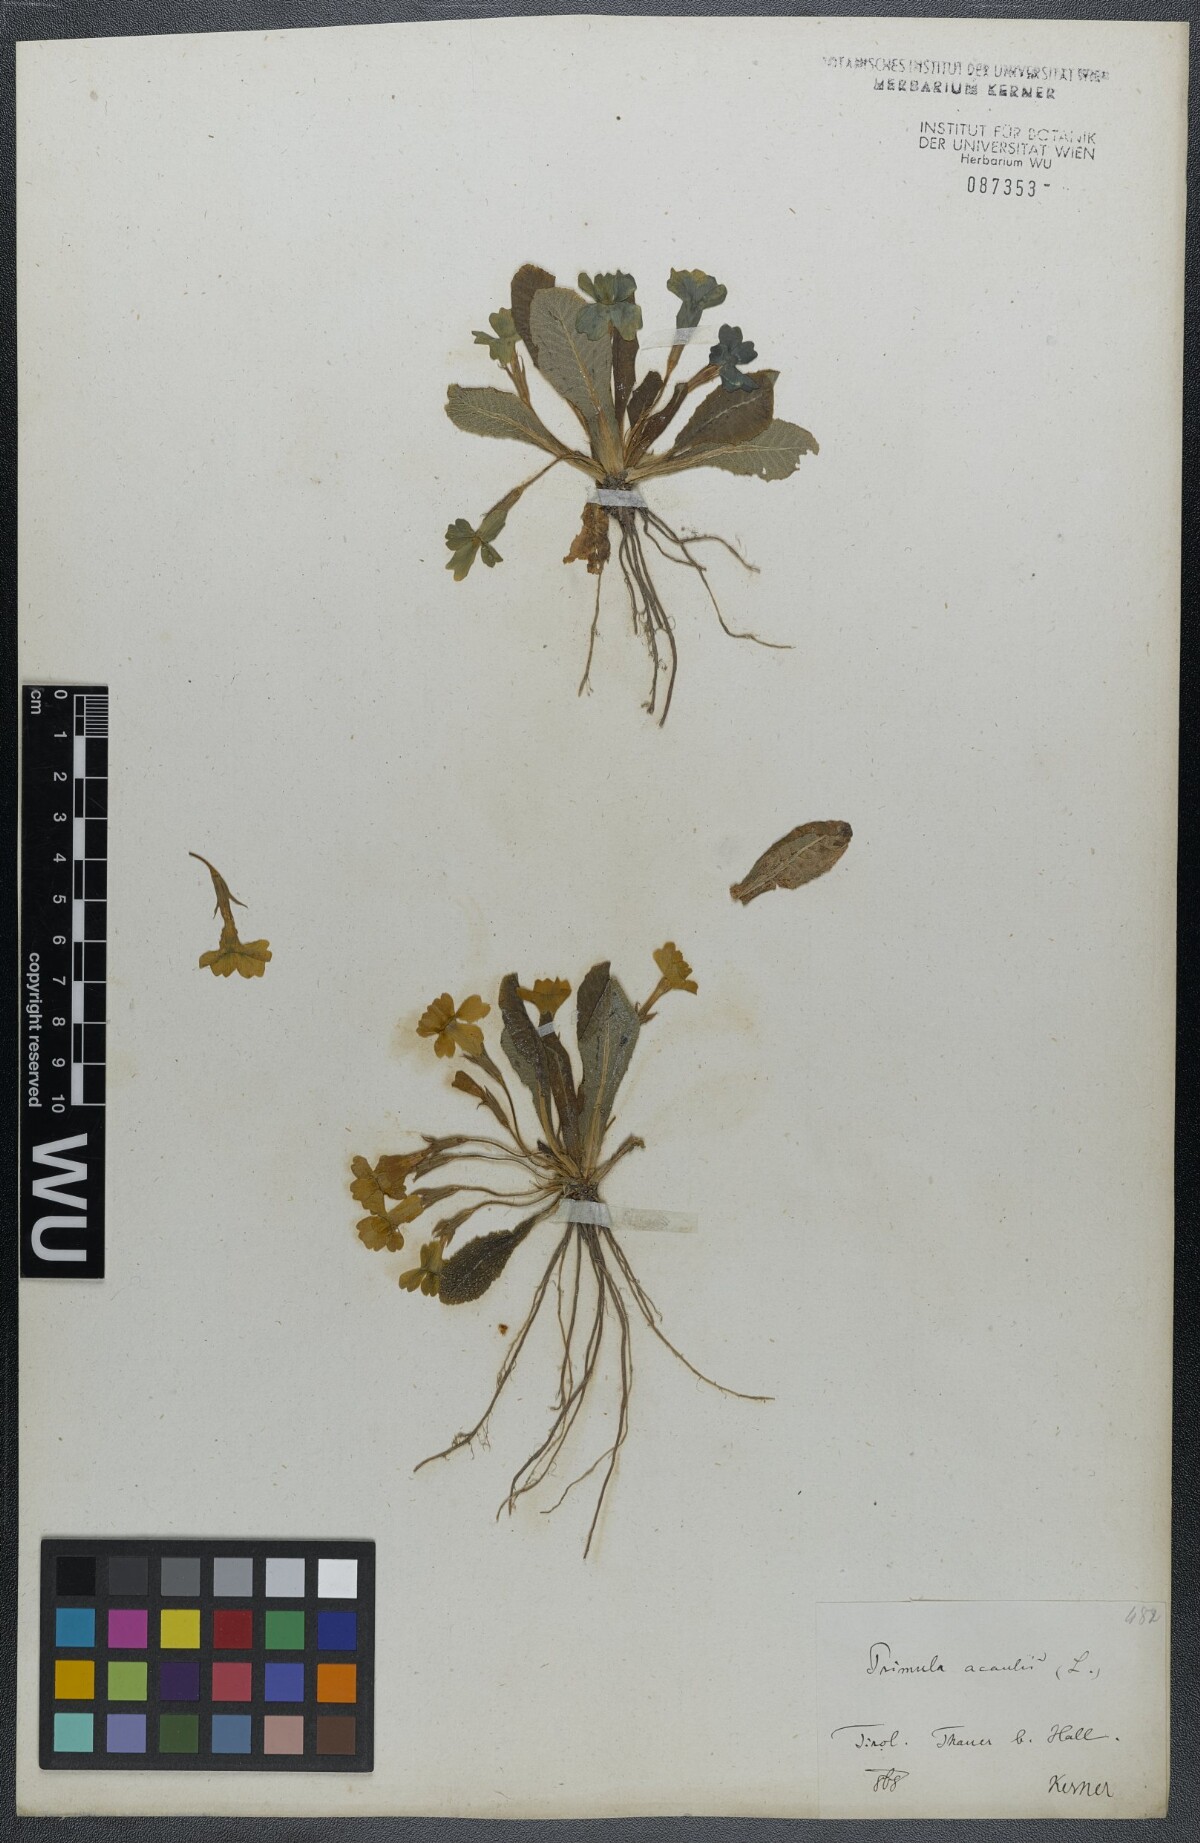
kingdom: Plantae
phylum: Tracheophyta
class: Magnoliopsida
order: Ericales
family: Primulaceae
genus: Primula
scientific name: Primula vulgaris
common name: Primrose
